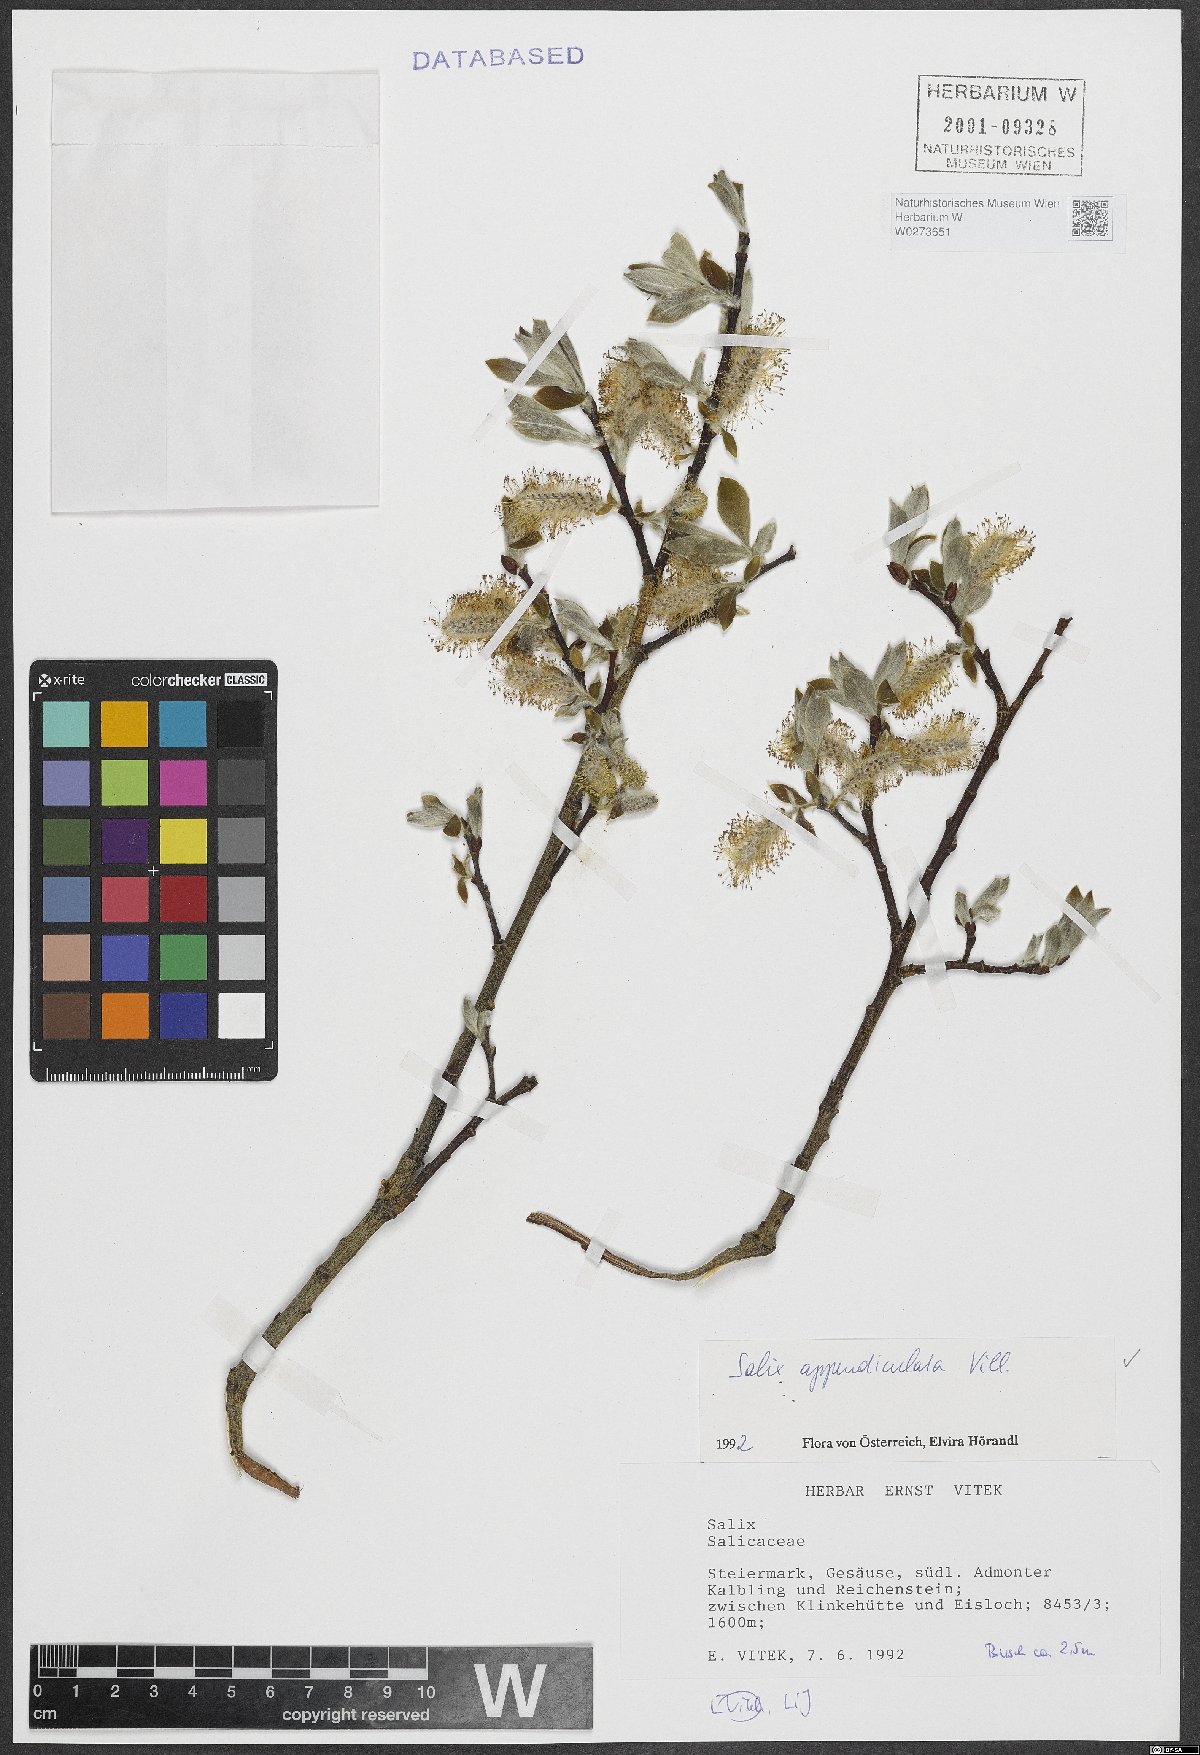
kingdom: Plantae
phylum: Tracheophyta
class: Magnoliopsida
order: Malpighiales
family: Salicaceae
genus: Salix
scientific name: Salix appendiculata
